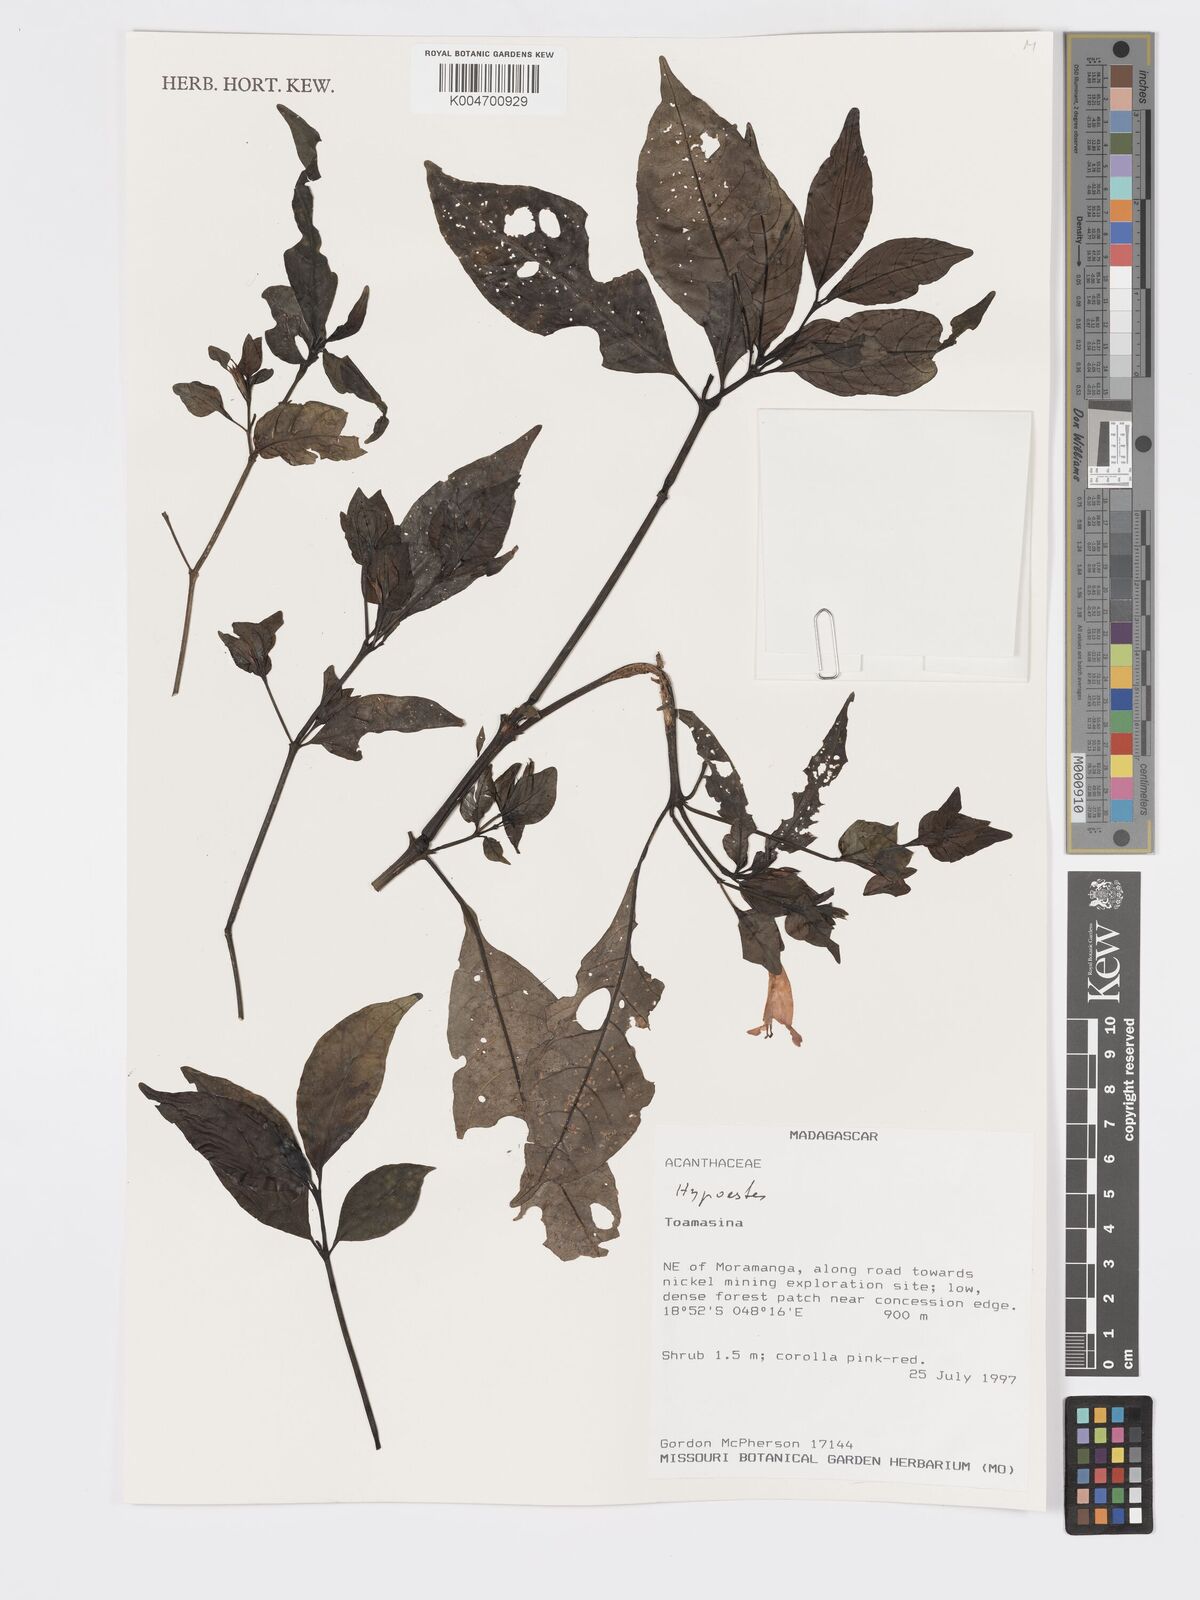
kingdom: Plantae
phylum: Tracheophyta
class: Magnoliopsida
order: Lamiales
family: Acanthaceae
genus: Hypoestes
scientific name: Hypoestes
